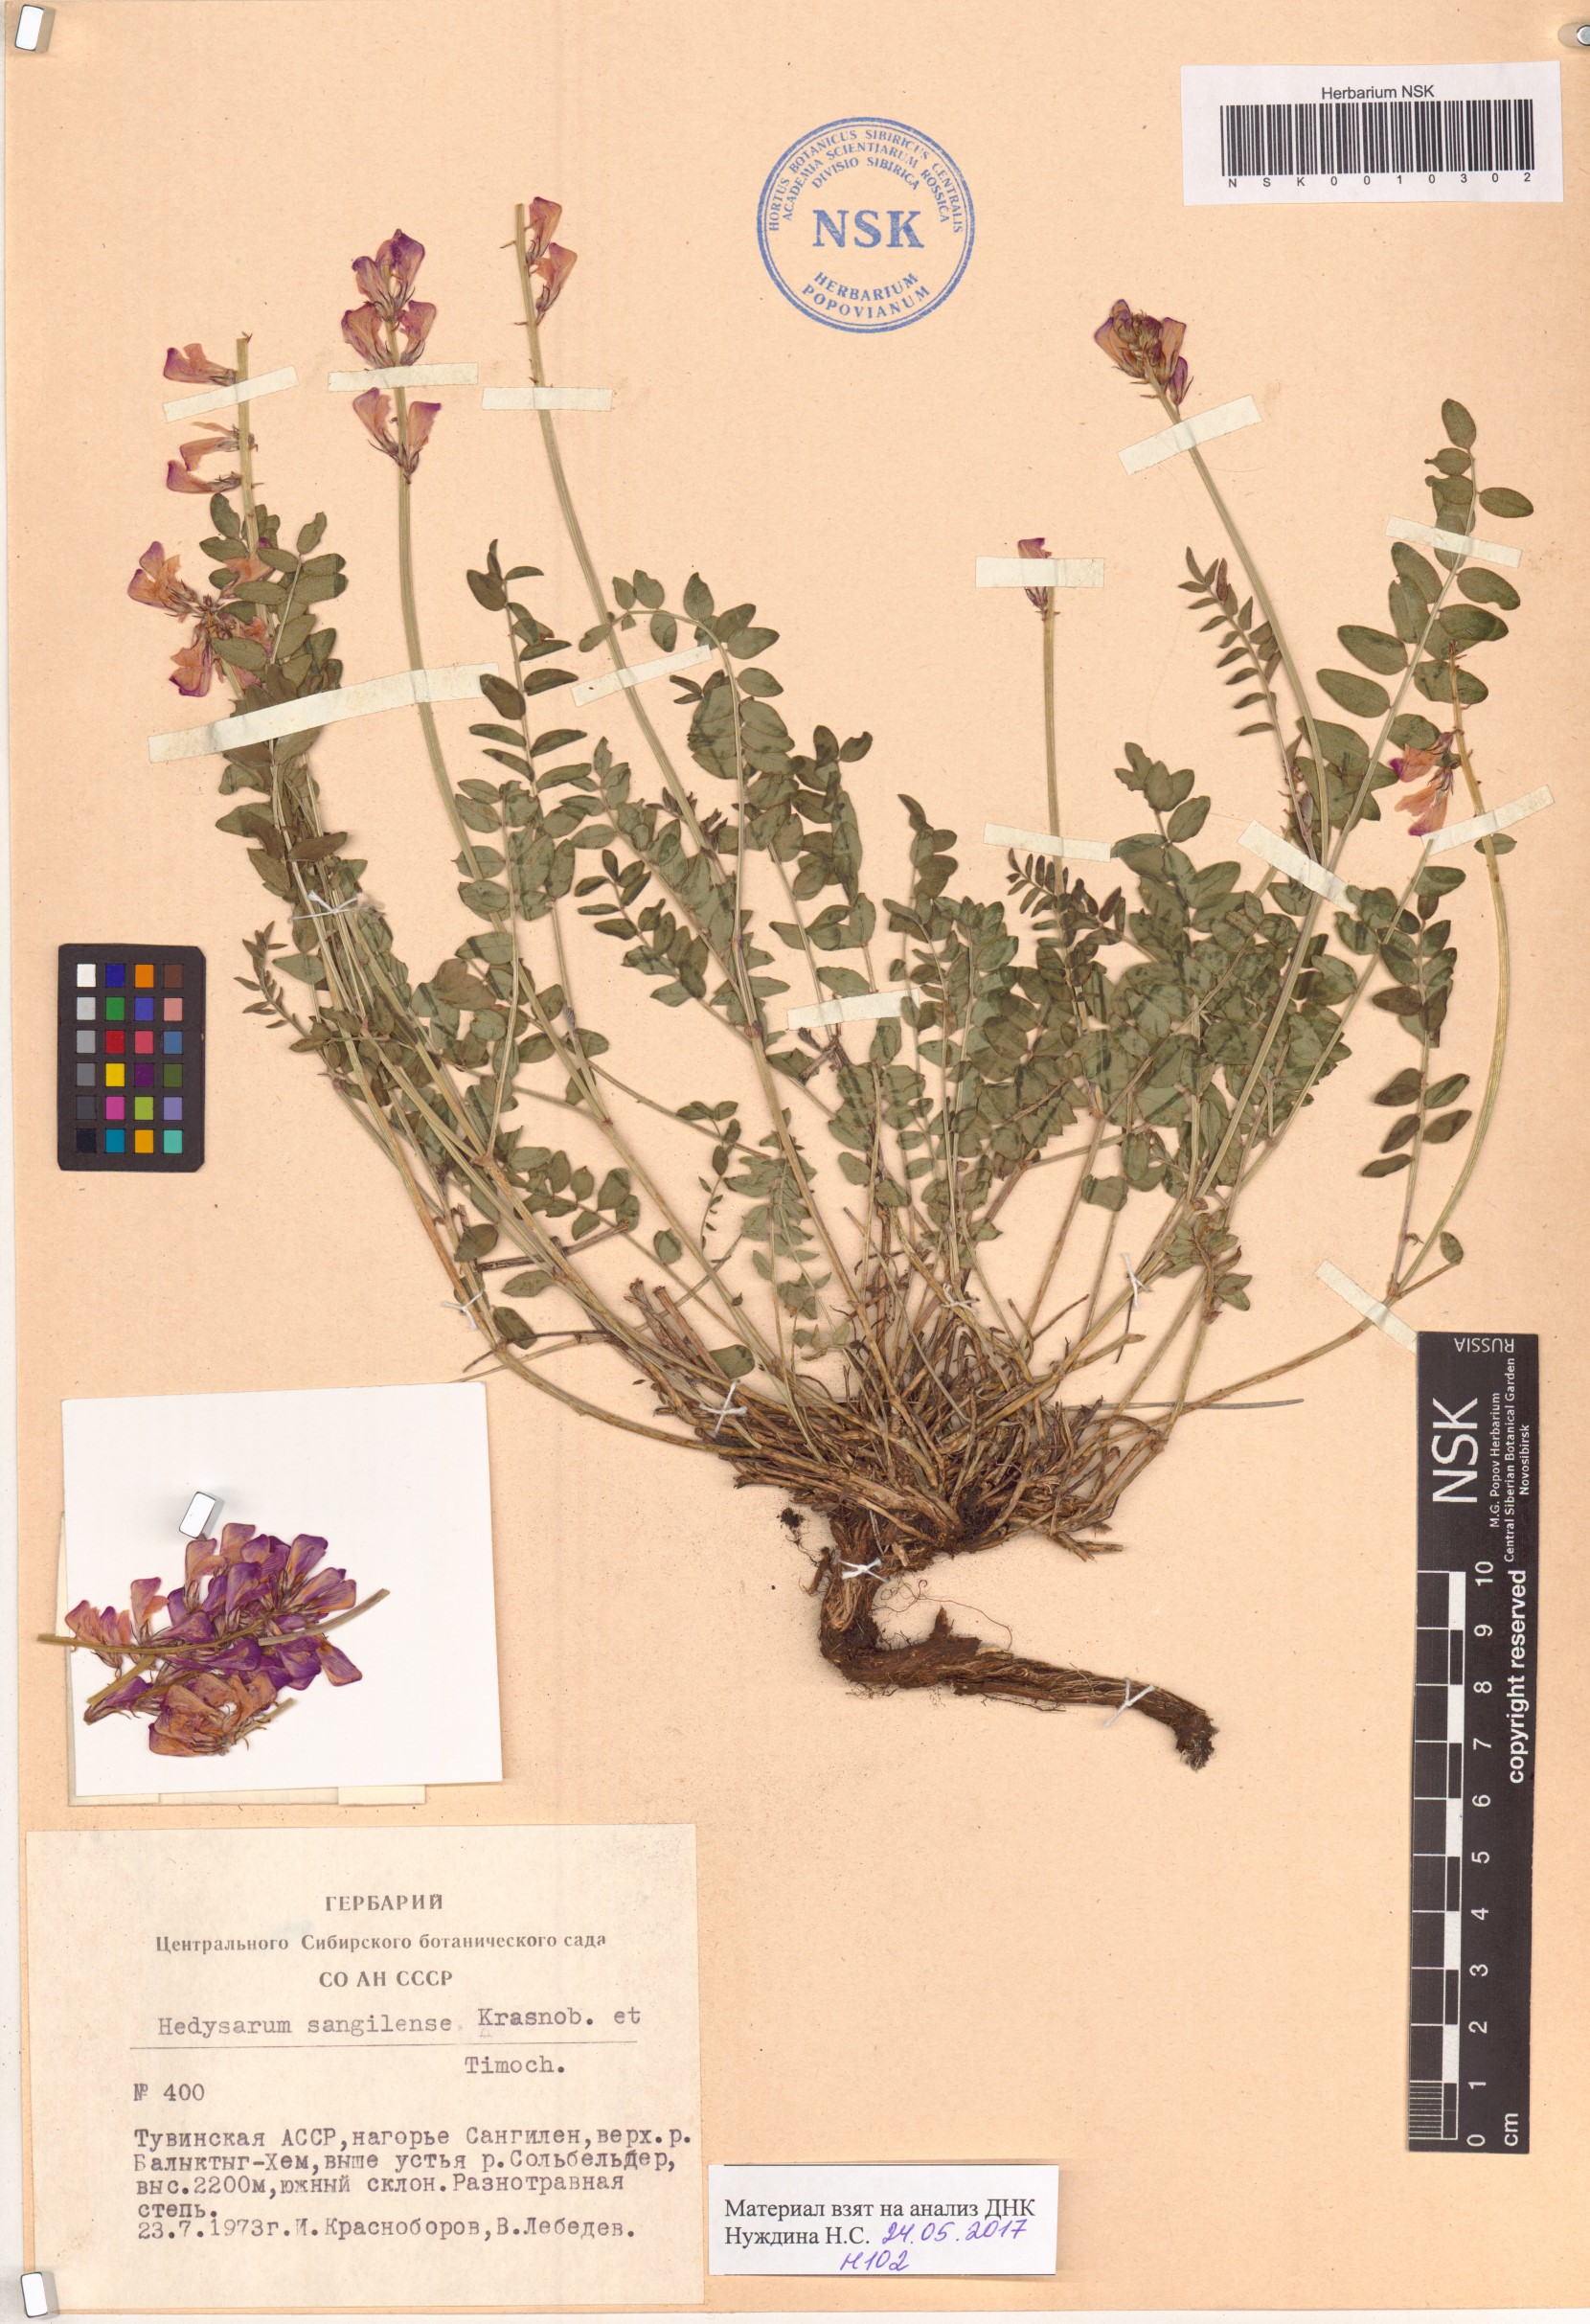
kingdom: Plantae
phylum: Tracheophyta
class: Magnoliopsida
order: Fabales
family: Fabaceae
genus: Hedysarum
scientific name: Hedysarum sangilense
